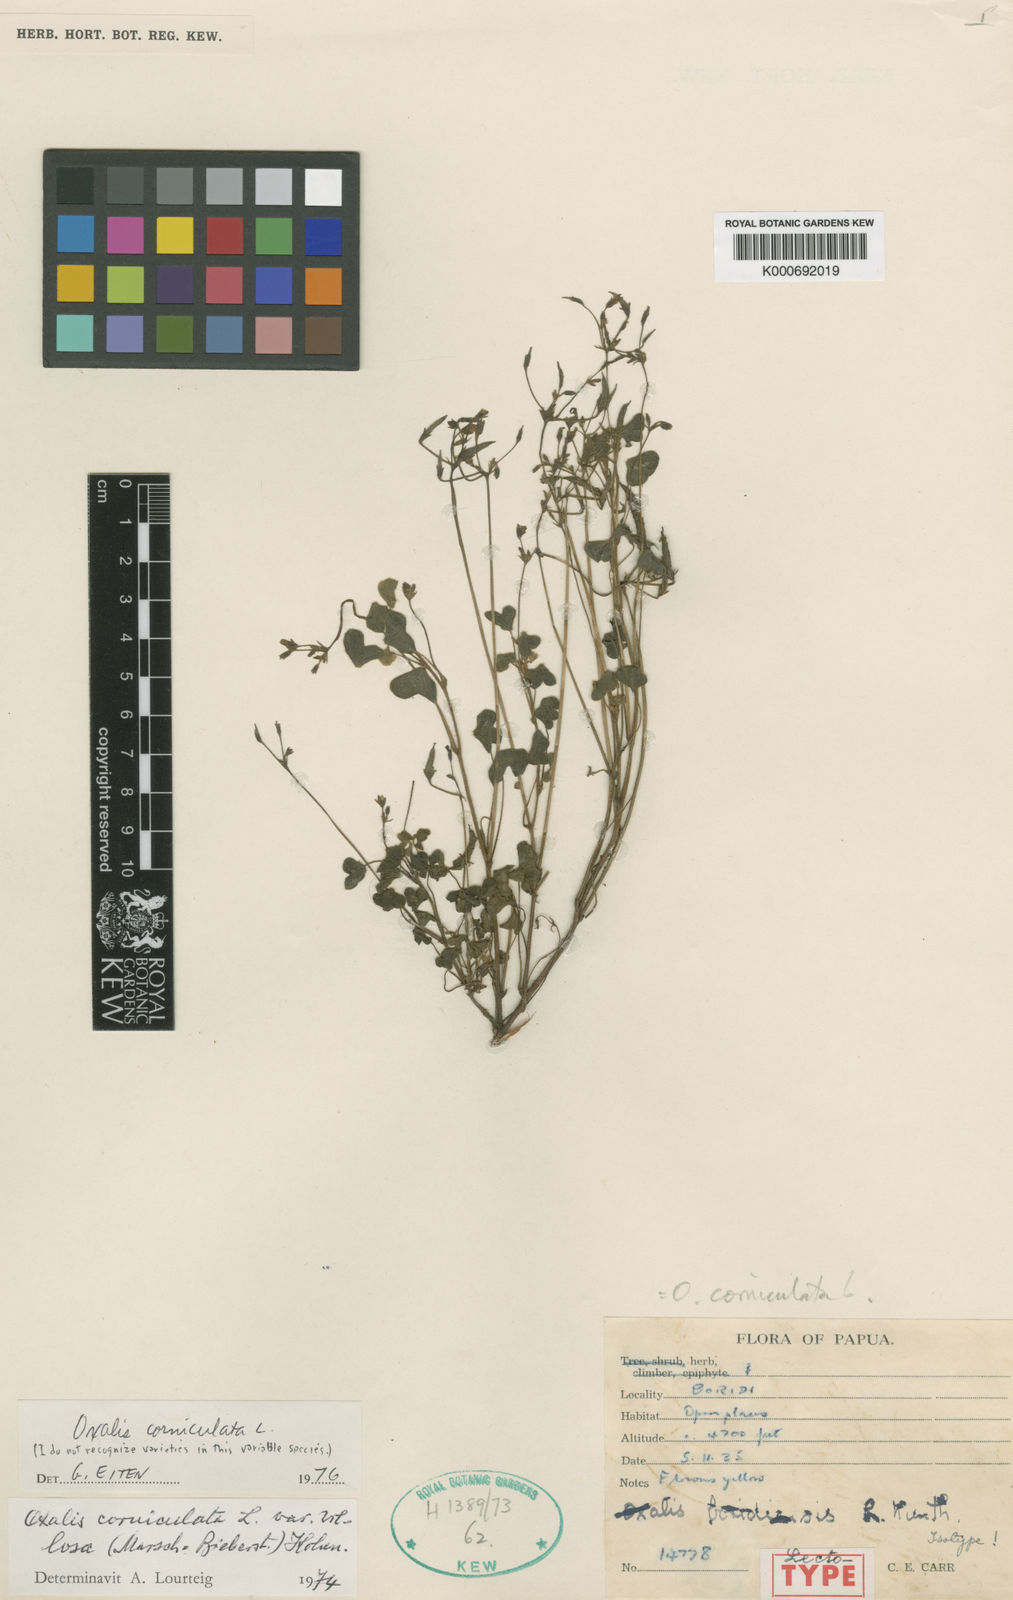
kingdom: Plantae
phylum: Tracheophyta
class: Magnoliopsida
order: Oxalidales
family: Oxalidaceae
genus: Oxalis
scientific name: Oxalis corniculata
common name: Procumbent yellow-sorrel
